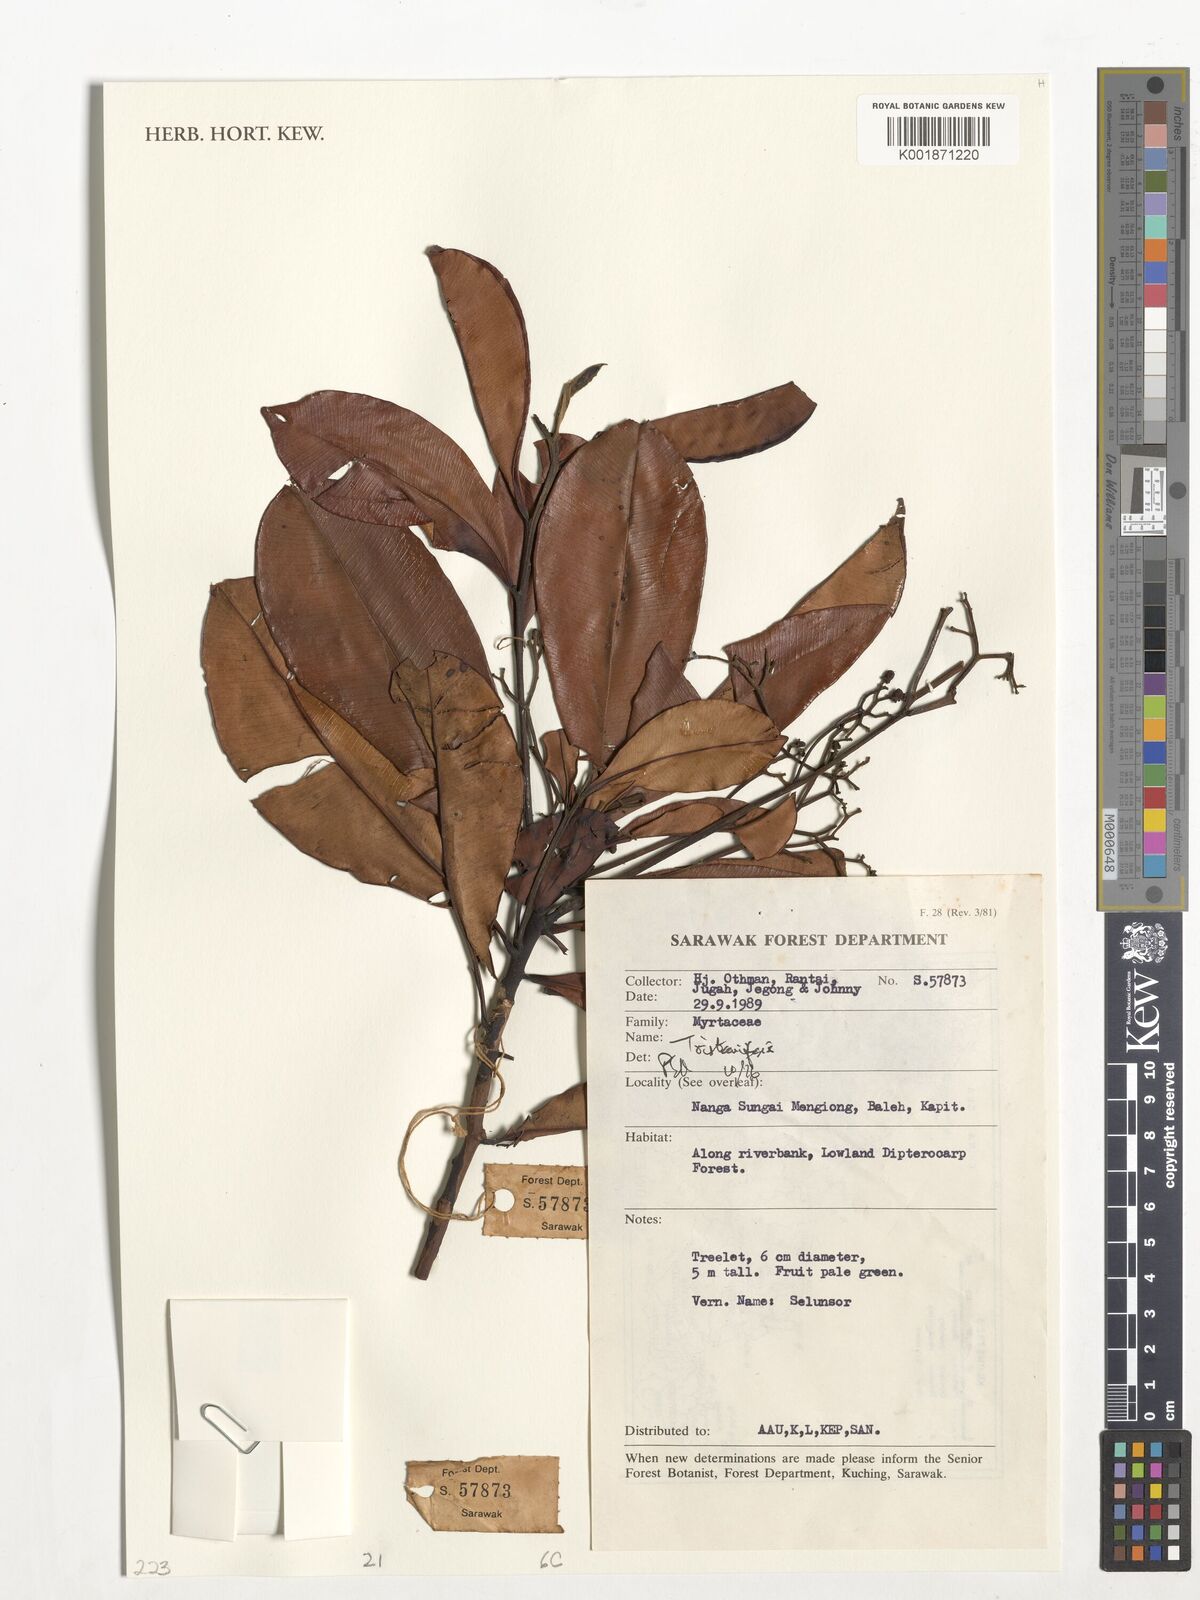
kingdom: Plantae
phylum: Tracheophyta
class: Magnoliopsida
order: Myrtales
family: Myrtaceae
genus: Tristaniopsis
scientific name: Tristaniopsis
